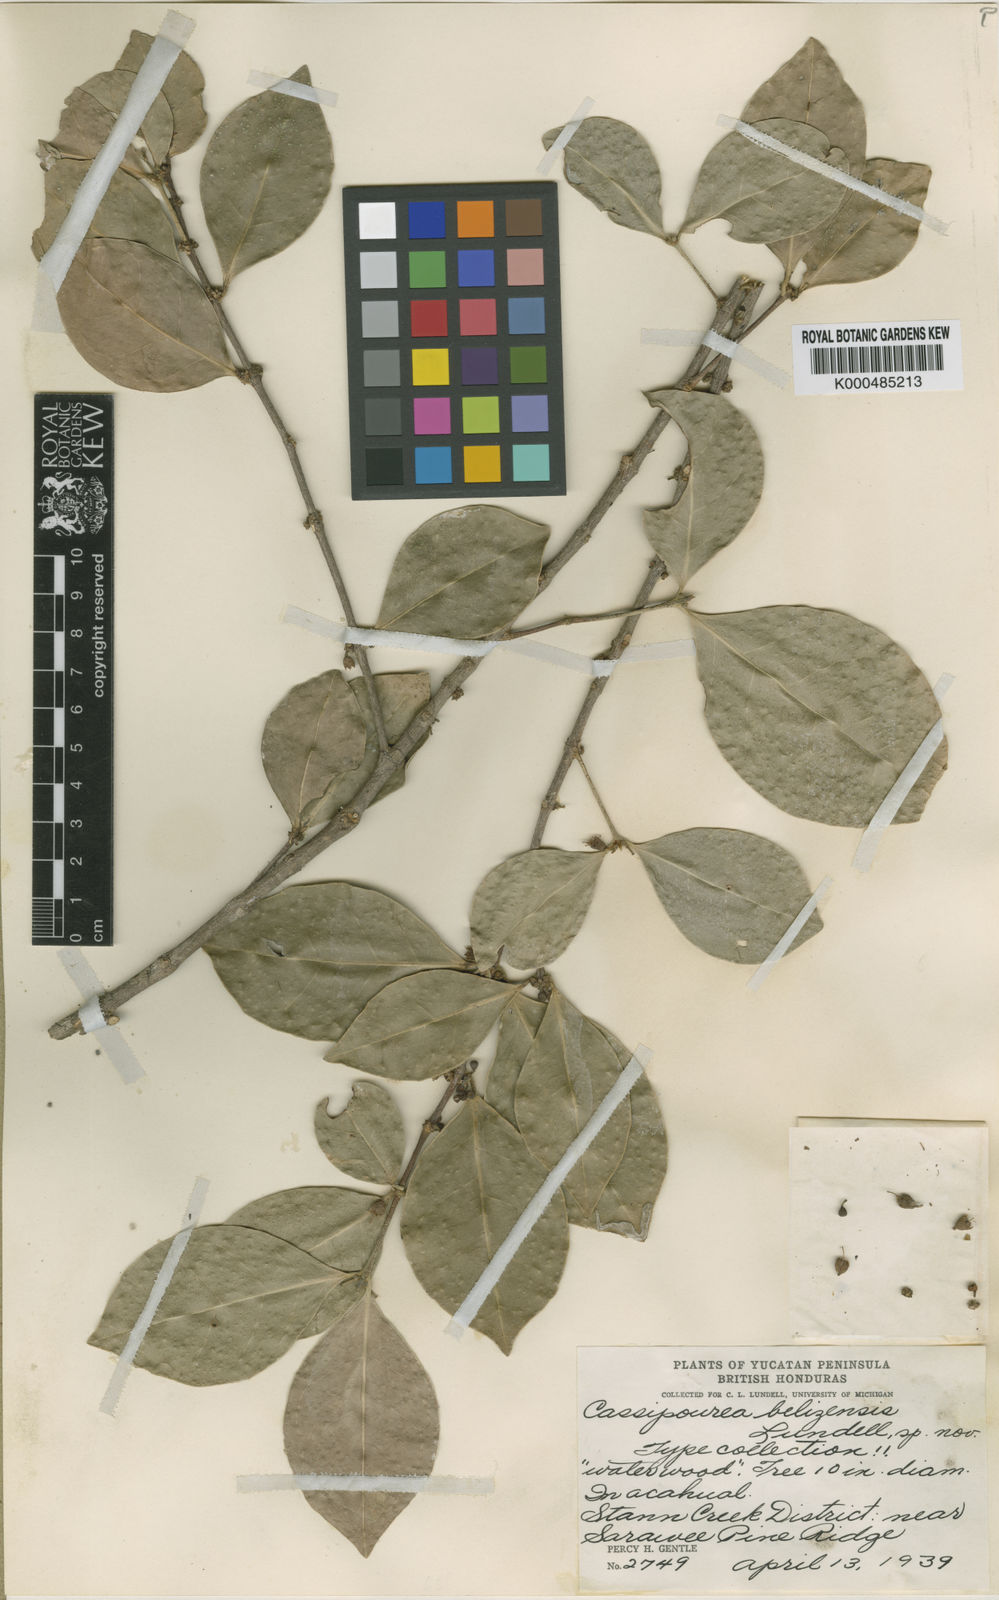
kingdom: Plantae
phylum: Tracheophyta
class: Magnoliopsida
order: Malpighiales
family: Rhizophoraceae
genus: Cassipourea
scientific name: Cassipourea elliptica
